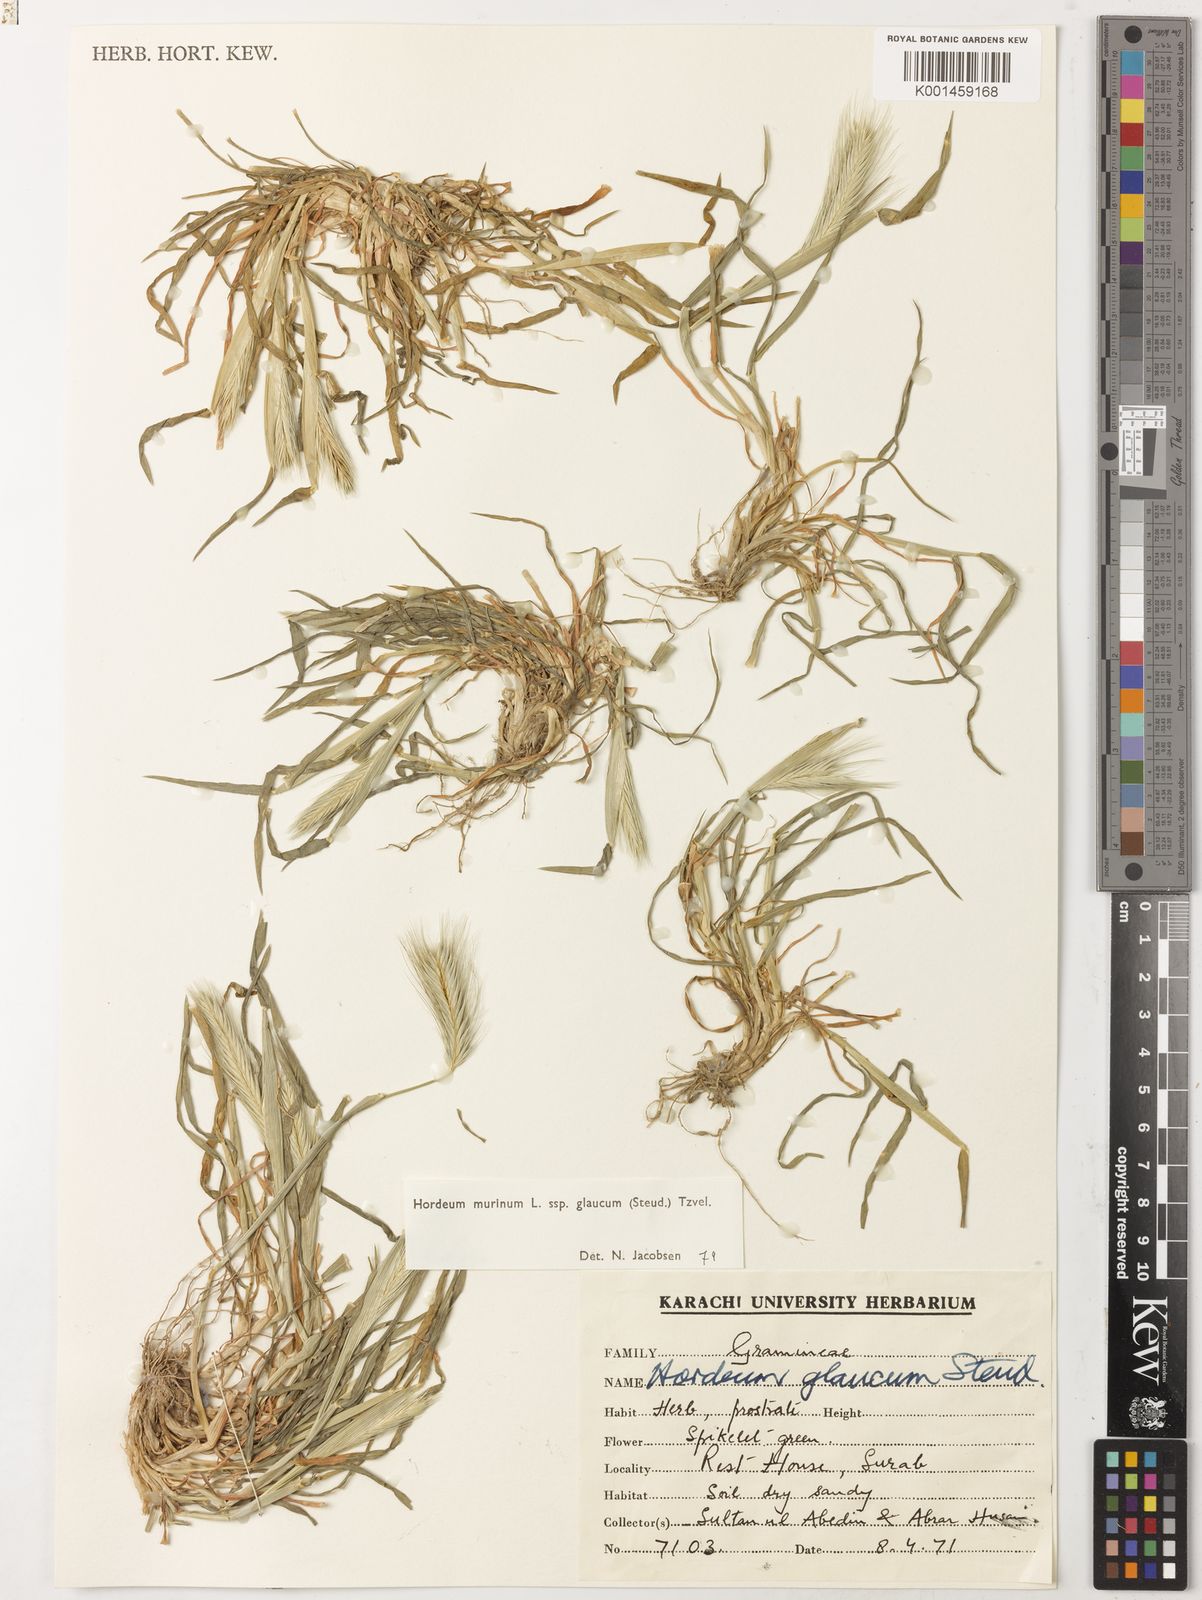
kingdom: Plantae
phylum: Tracheophyta
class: Liliopsida
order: Poales
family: Poaceae
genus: Hordeum
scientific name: Hordeum murinum
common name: Wall barley
